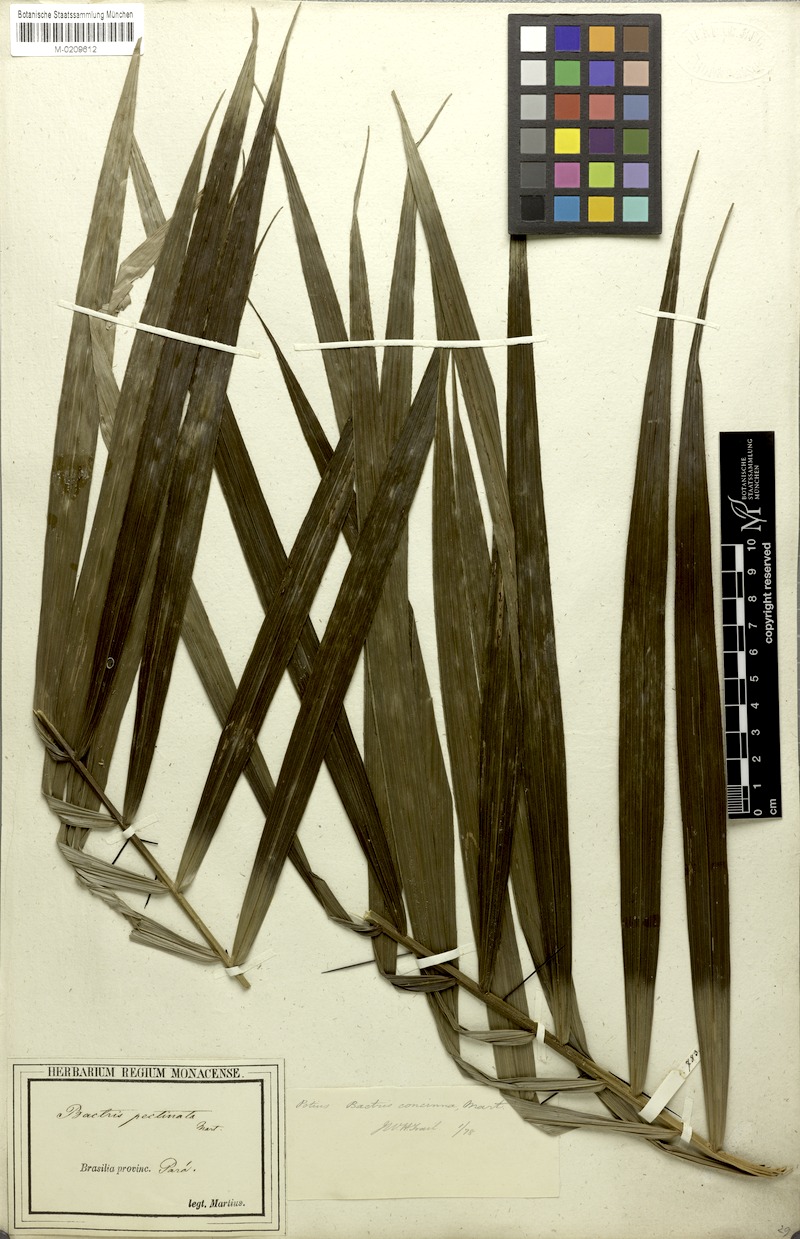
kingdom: Plantae
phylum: Tracheophyta
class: Liliopsida
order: Arecales
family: Arecaceae
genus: Bactris
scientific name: Bactris concinna
